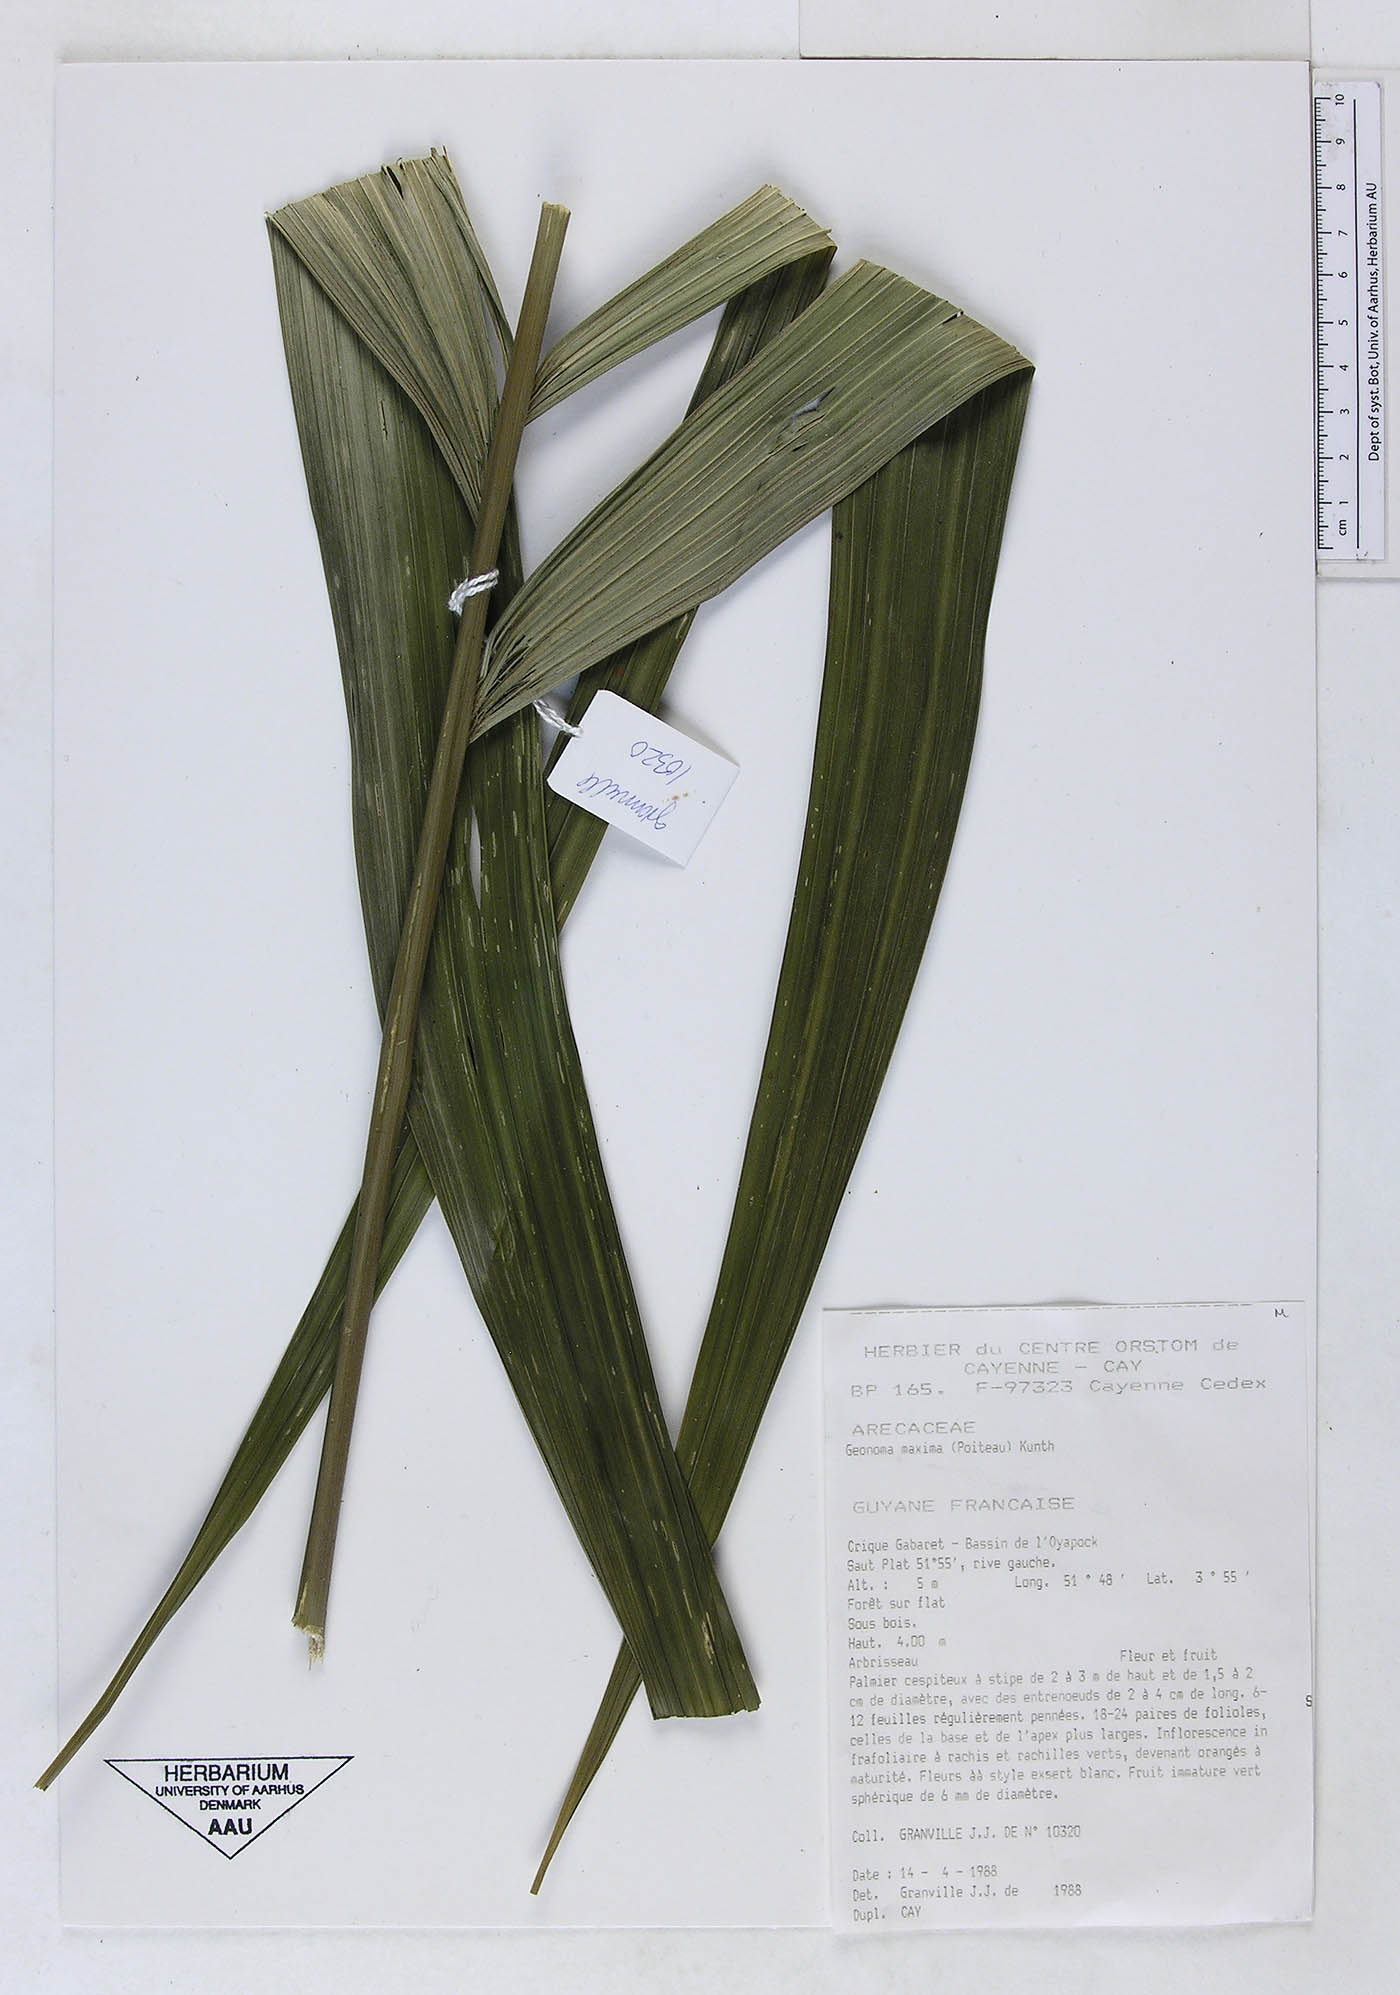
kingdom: Plantae
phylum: Tracheophyta
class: Liliopsida
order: Arecales
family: Arecaceae
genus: Geonoma
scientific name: Geonoma maxima
